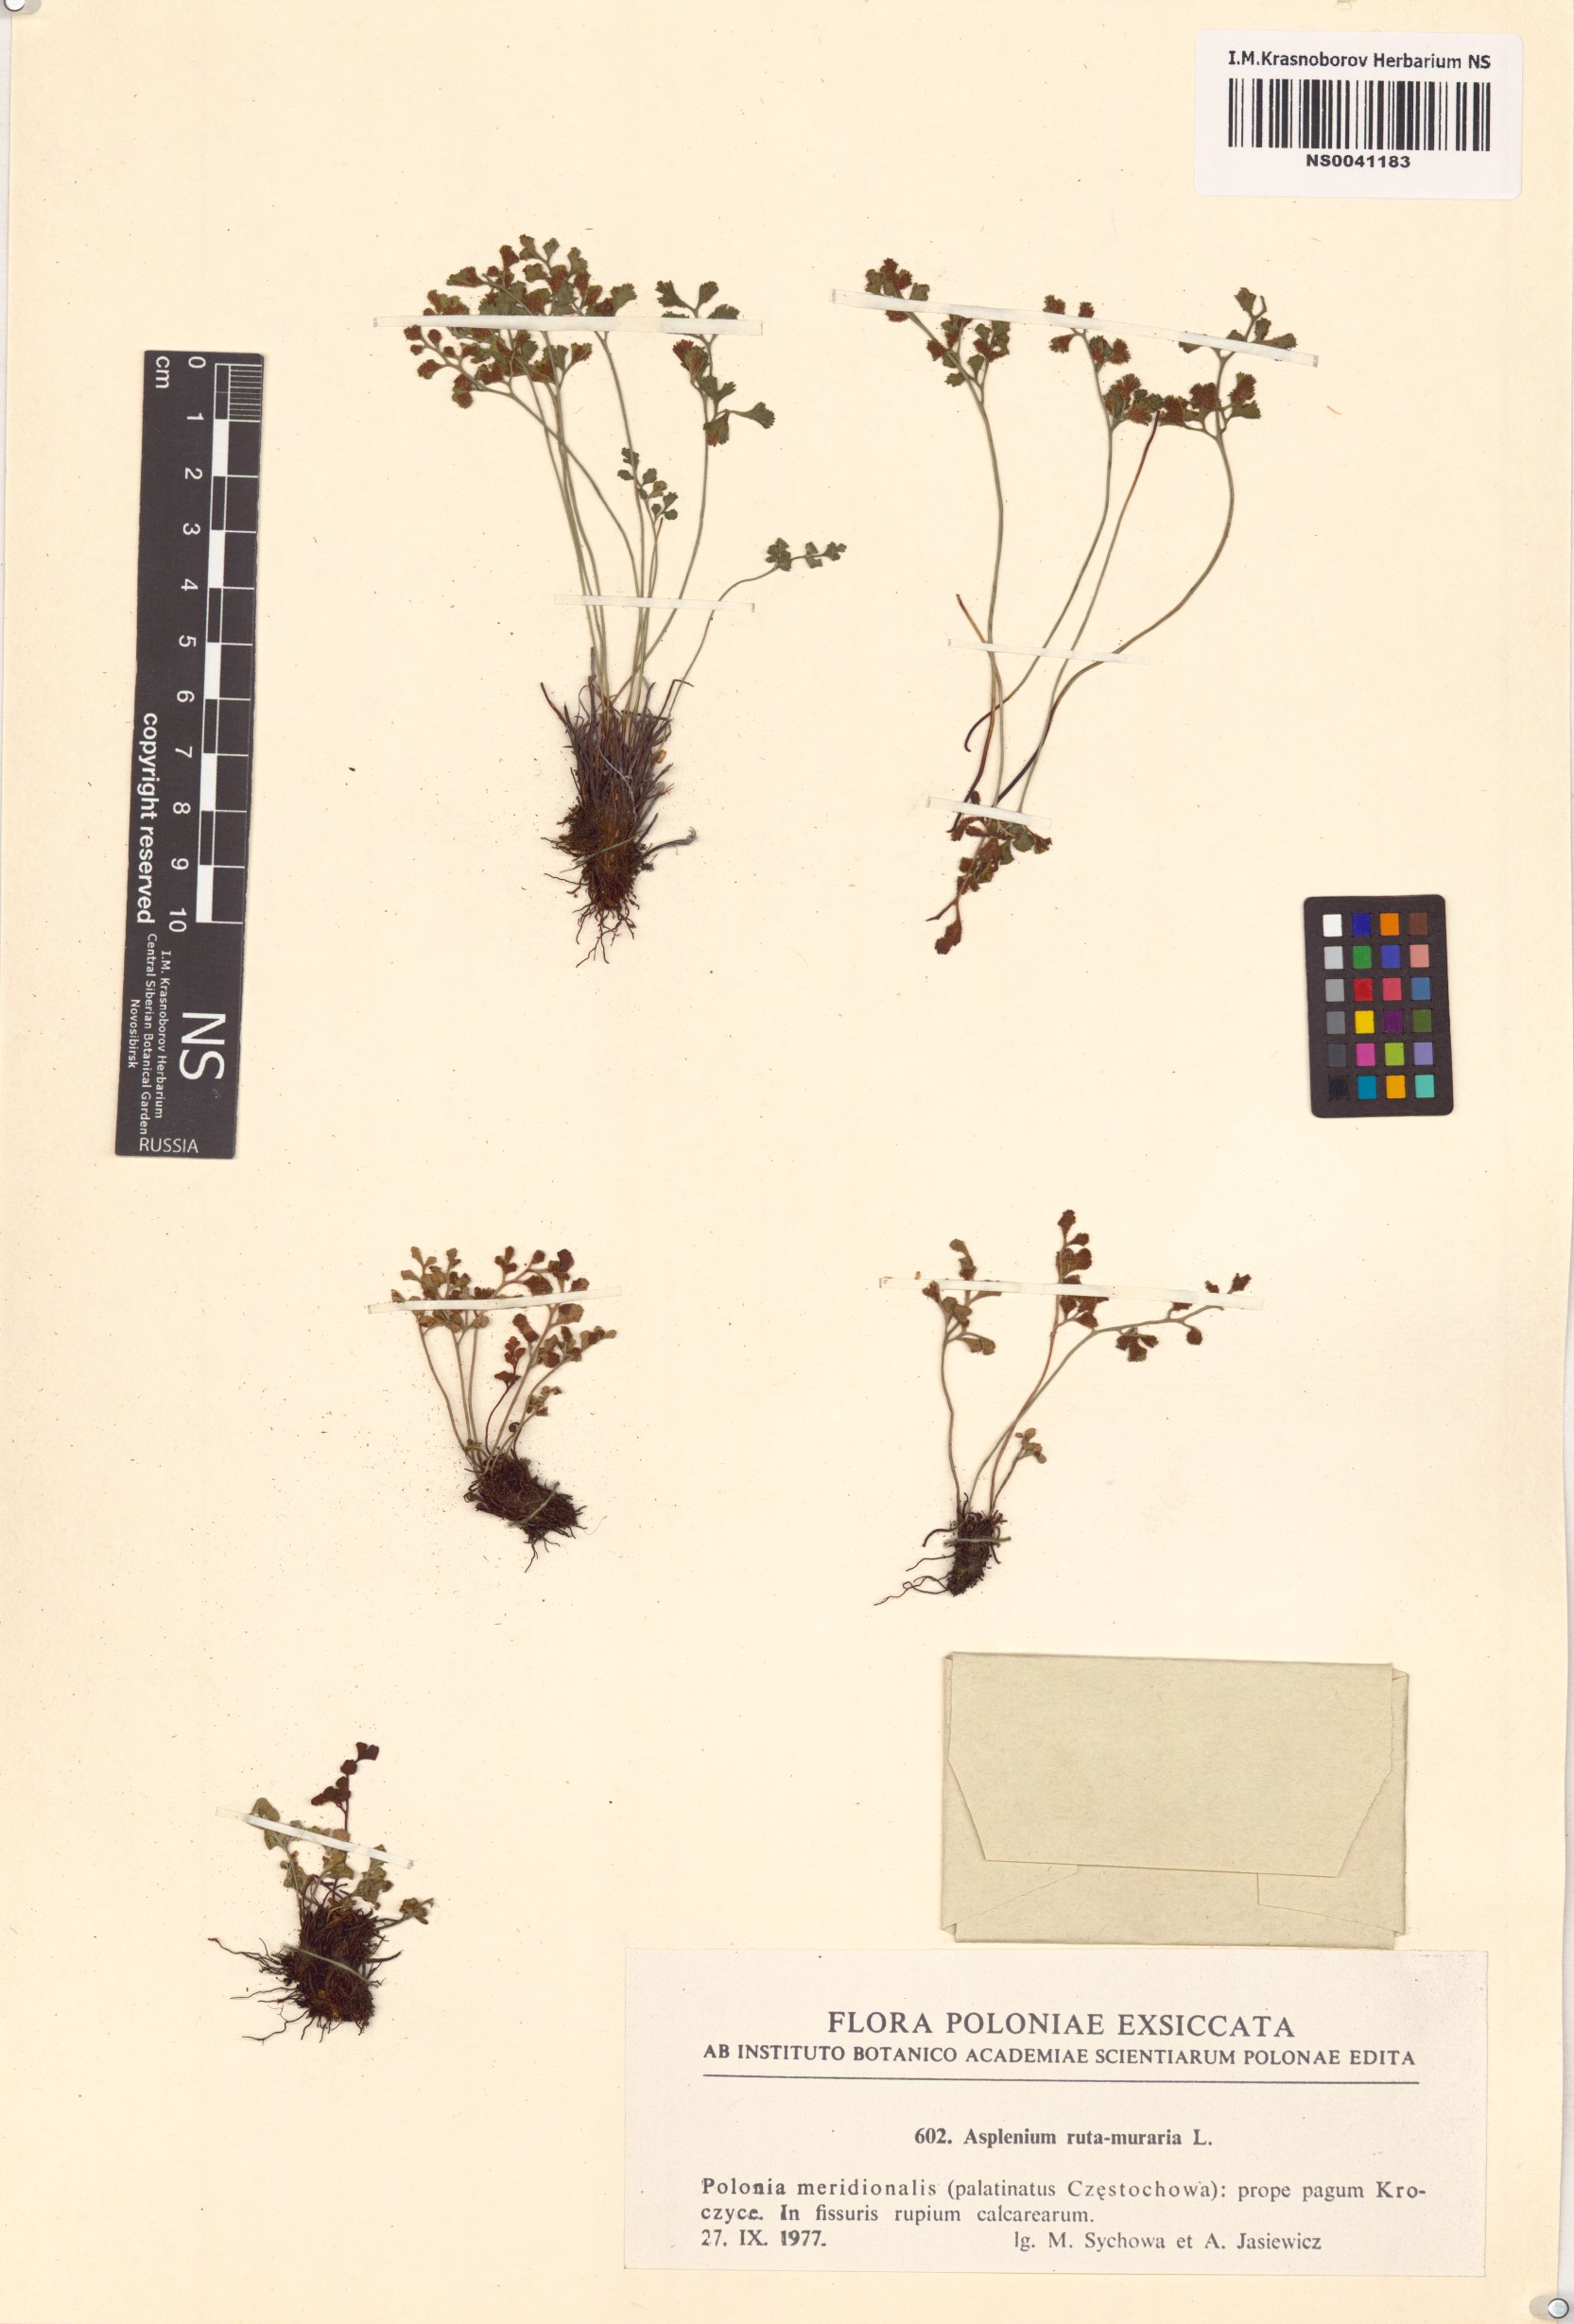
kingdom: Plantae
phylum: Tracheophyta
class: Polypodiopsida
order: Polypodiales
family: Aspleniaceae
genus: Asplenium
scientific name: Asplenium ruta-muraria
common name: Wall-rue
